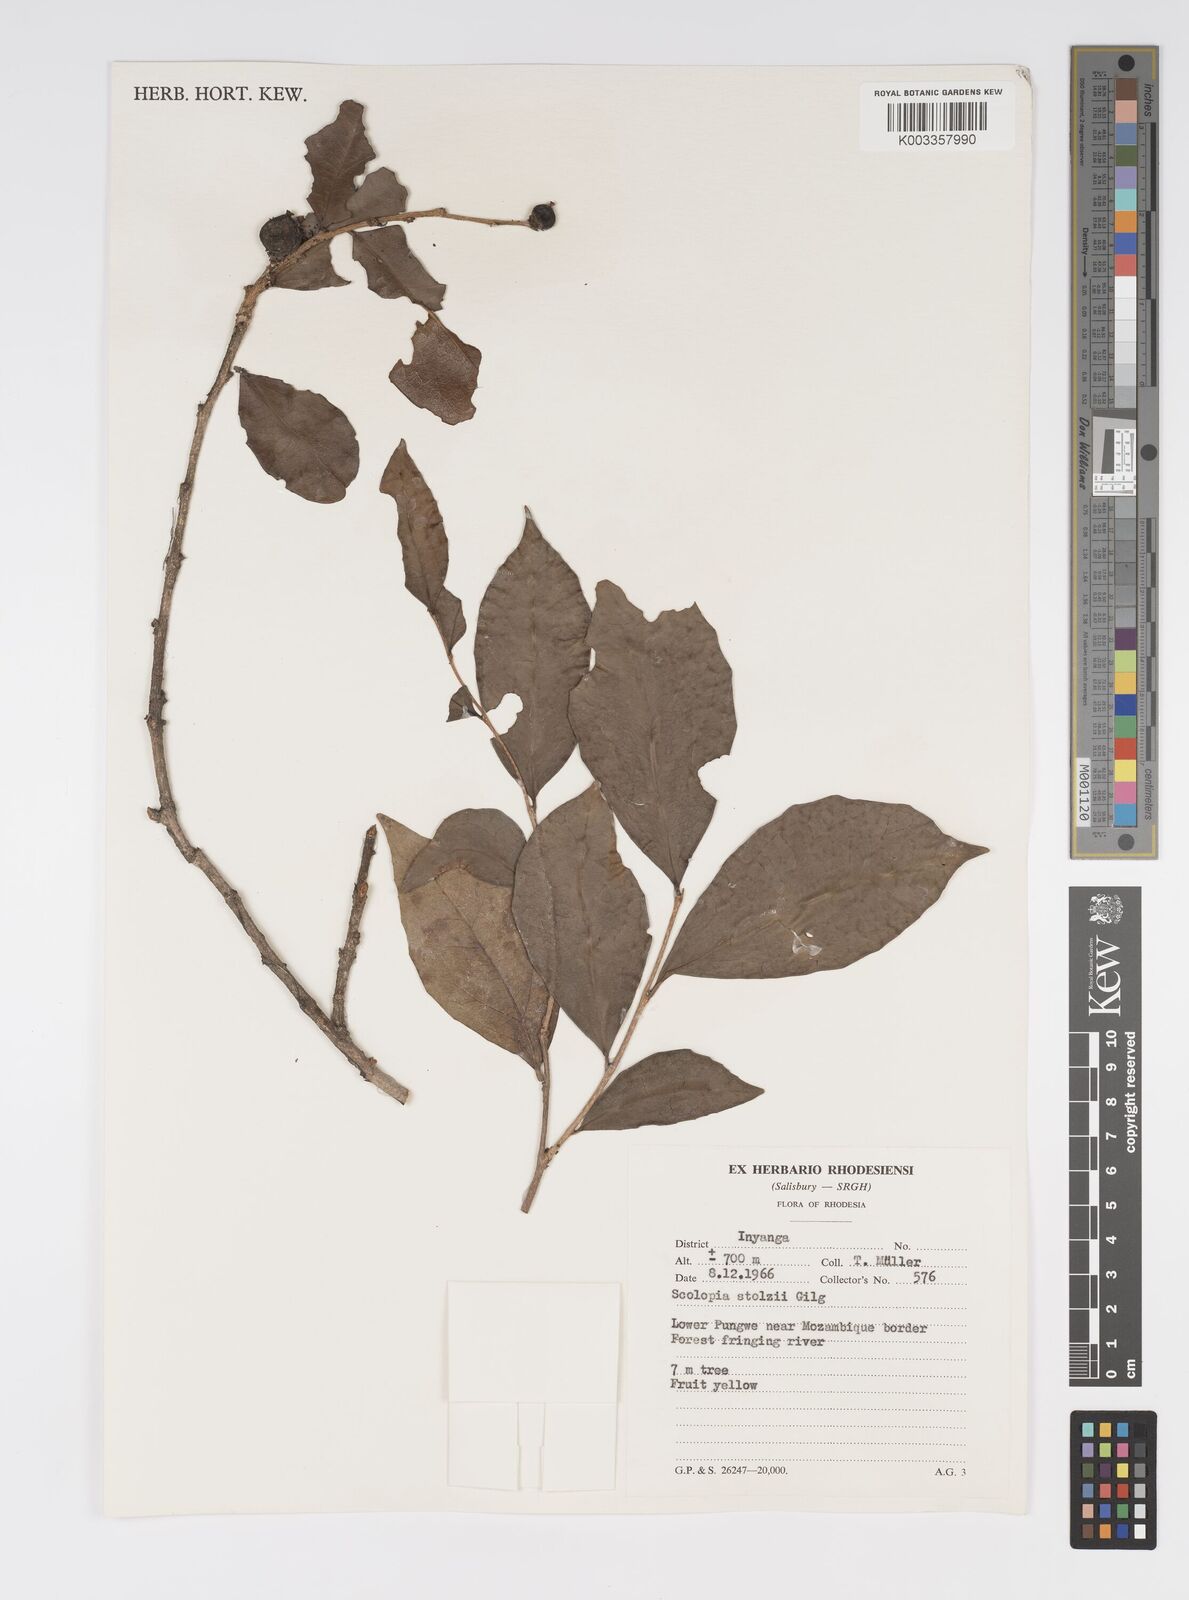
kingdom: Plantae
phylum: Tracheophyta
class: Magnoliopsida
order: Malpighiales
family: Salicaceae
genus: Scolopia
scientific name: Scolopia stolzii
